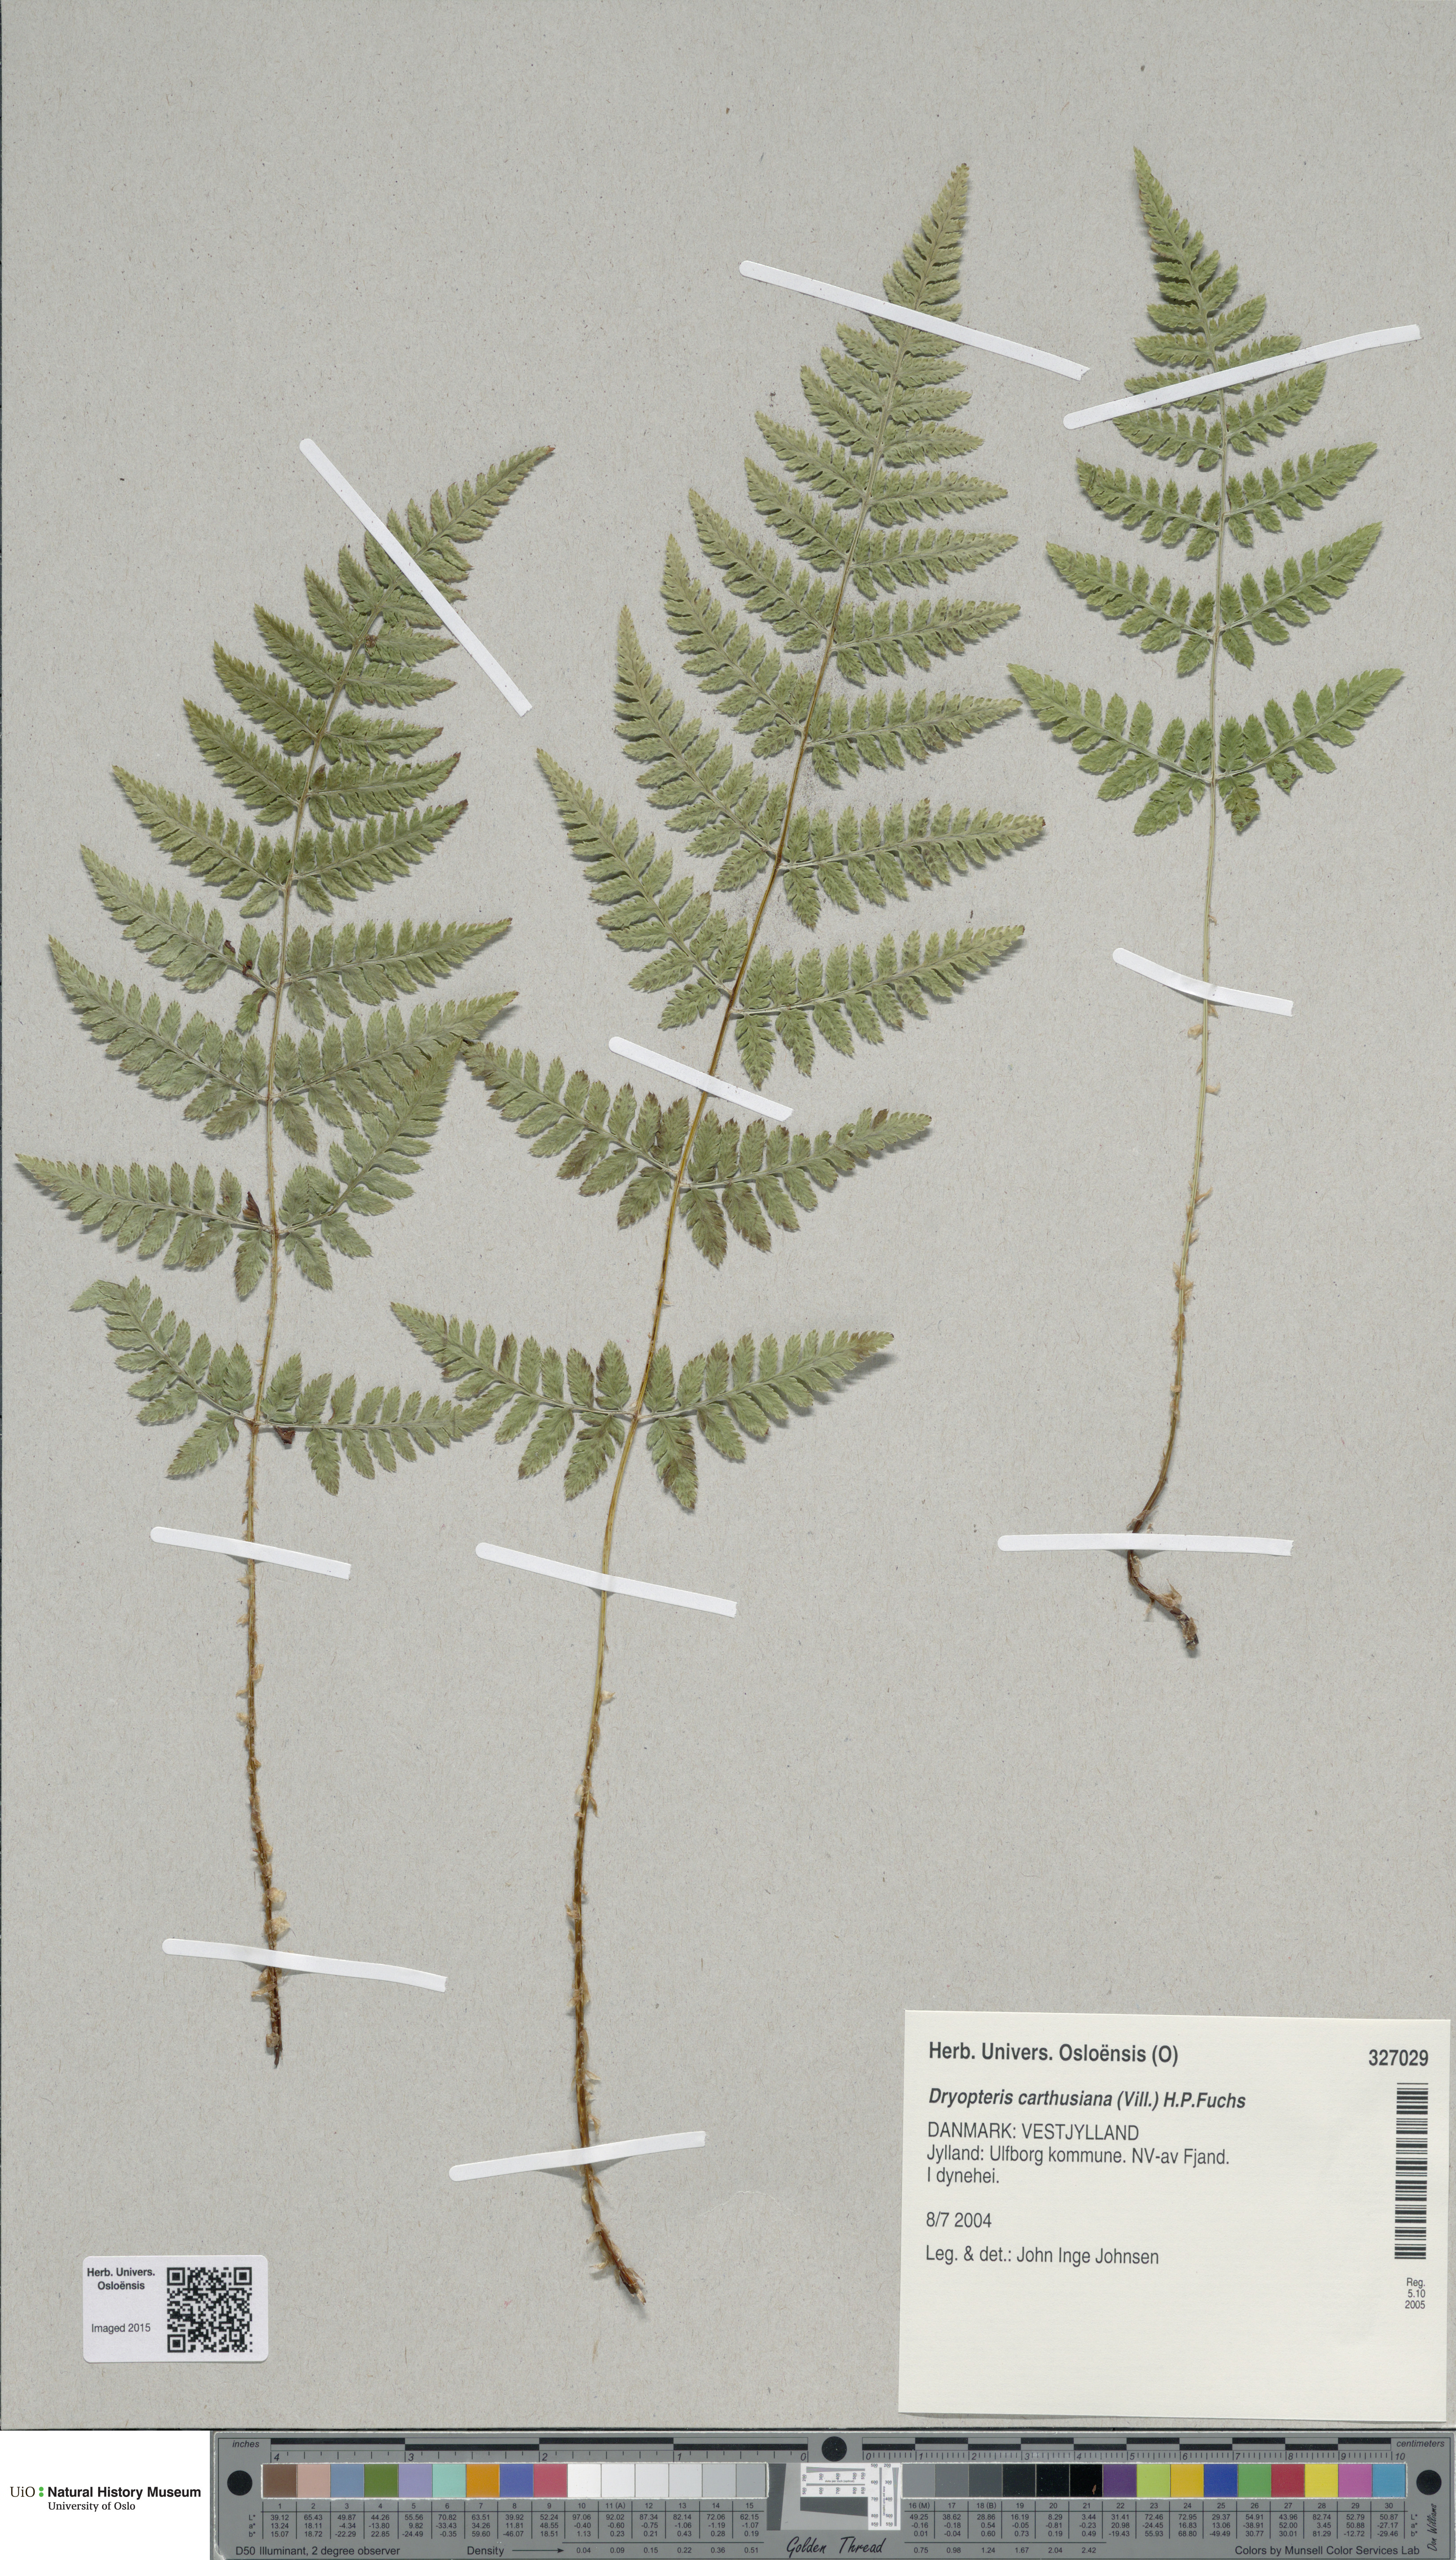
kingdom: Plantae
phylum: Tracheophyta
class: Polypodiopsida
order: Polypodiales
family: Dryopteridaceae
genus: Dryopteris
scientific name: Dryopteris carthusiana
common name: Narrow buckler-fern
